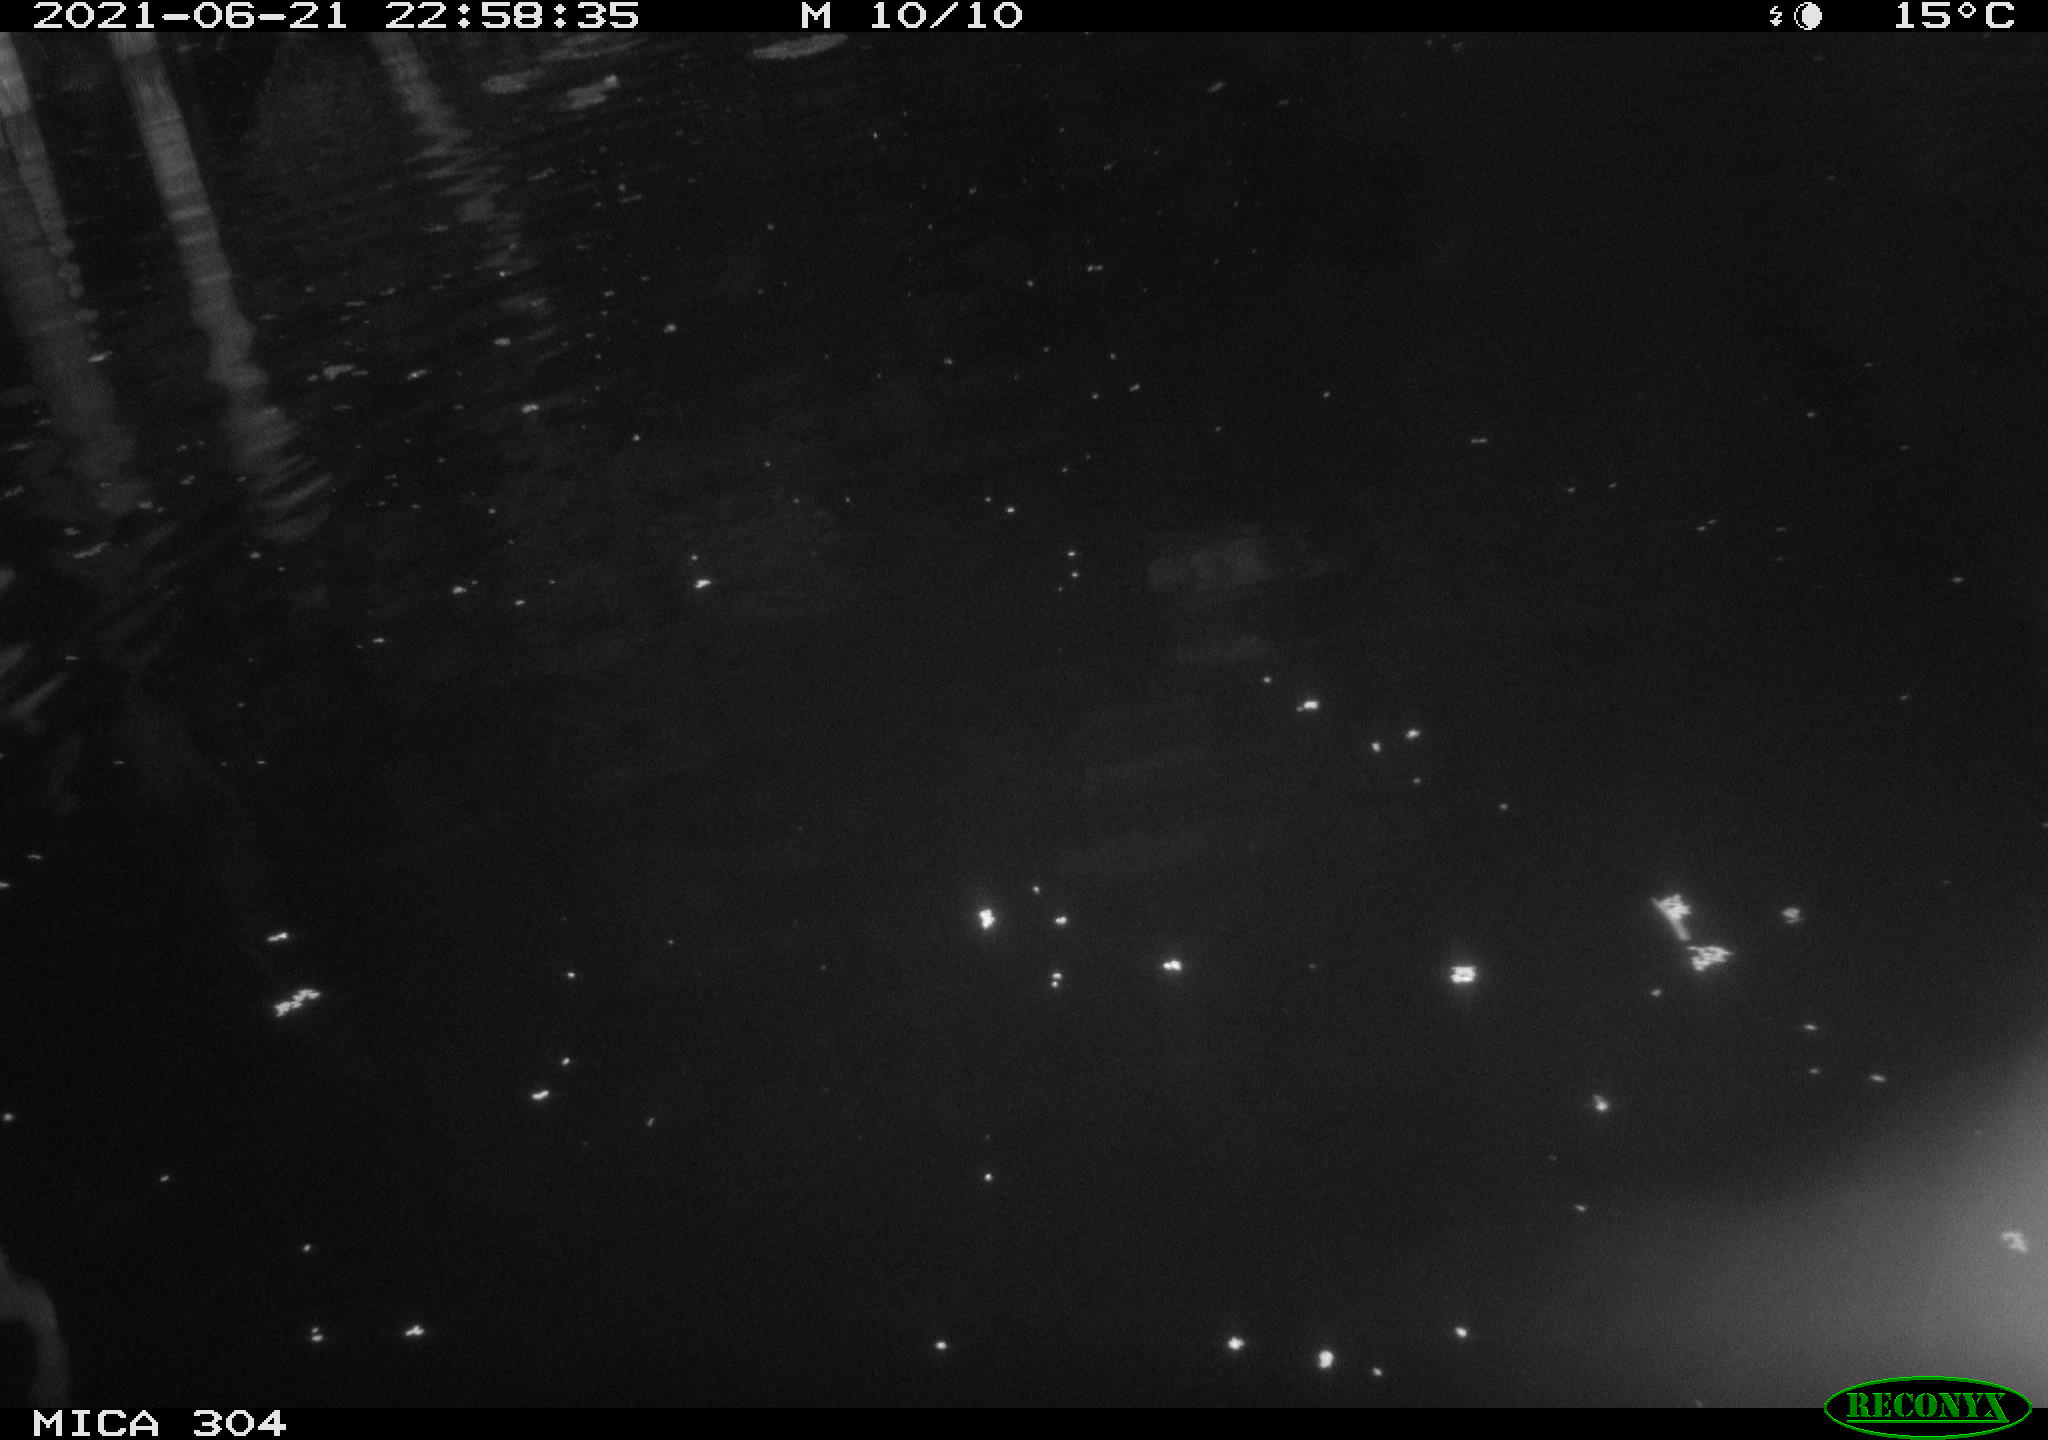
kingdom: Animalia
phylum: Chordata
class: Aves
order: Anseriformes
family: Anatidae
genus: Anas
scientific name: Anas platyrhynchos
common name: Mallard
